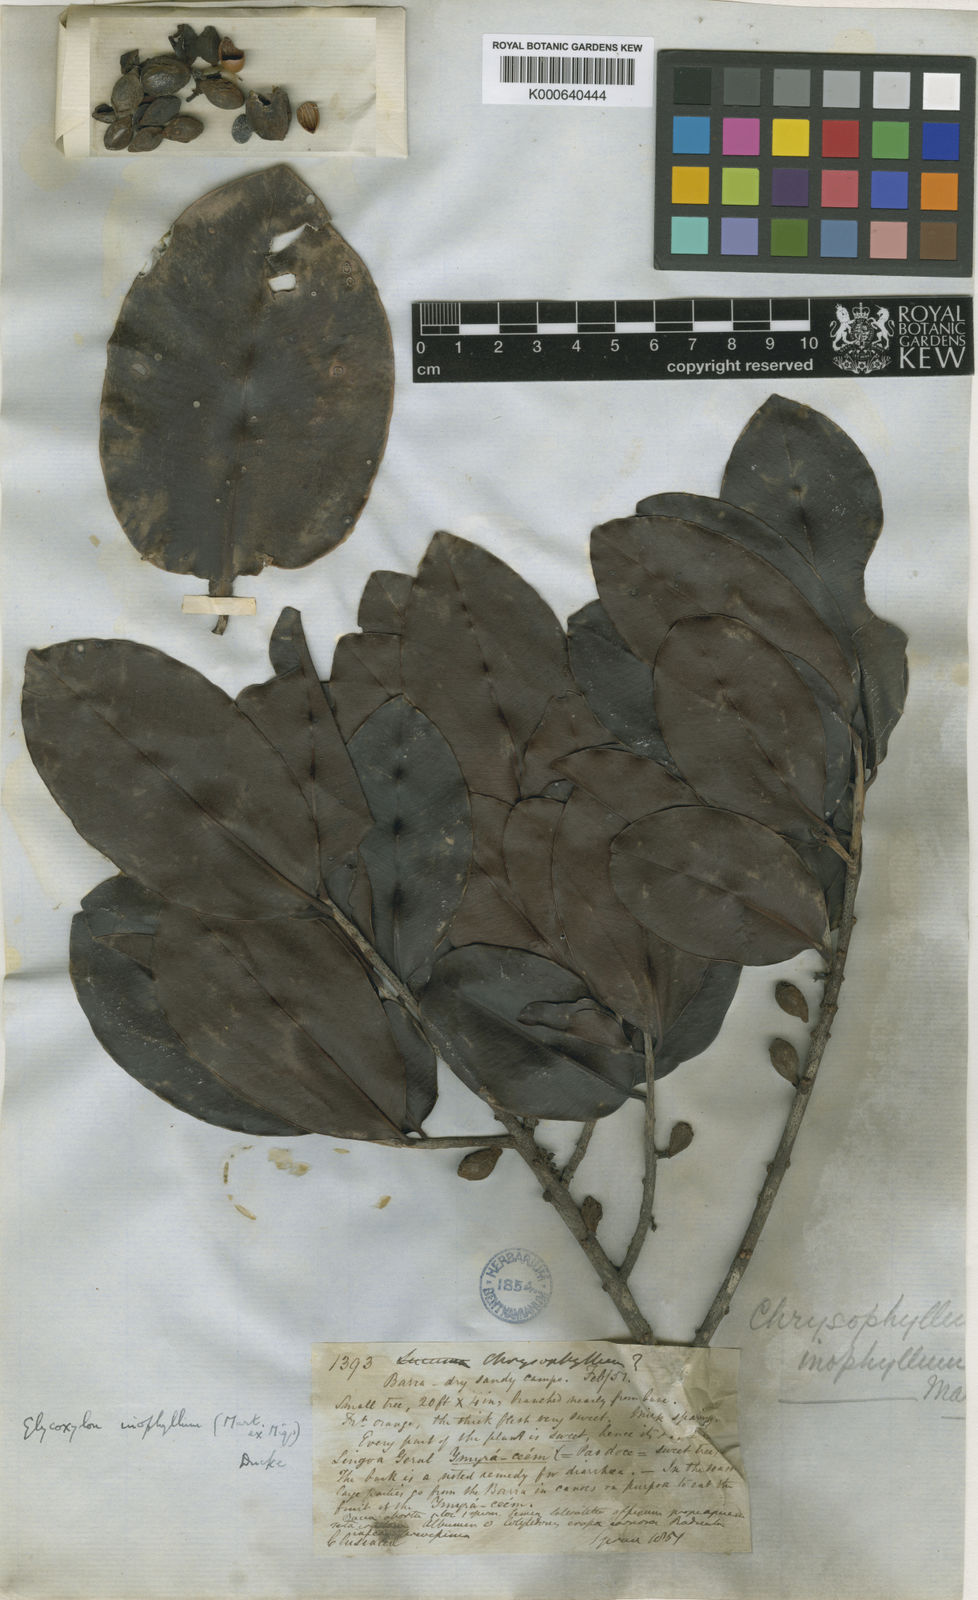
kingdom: Plantae
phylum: Tracheophyta
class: Magnoliopsida
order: Ericales
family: Sapotaceae
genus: Pradosia
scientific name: Pradosia schomburgkiana
